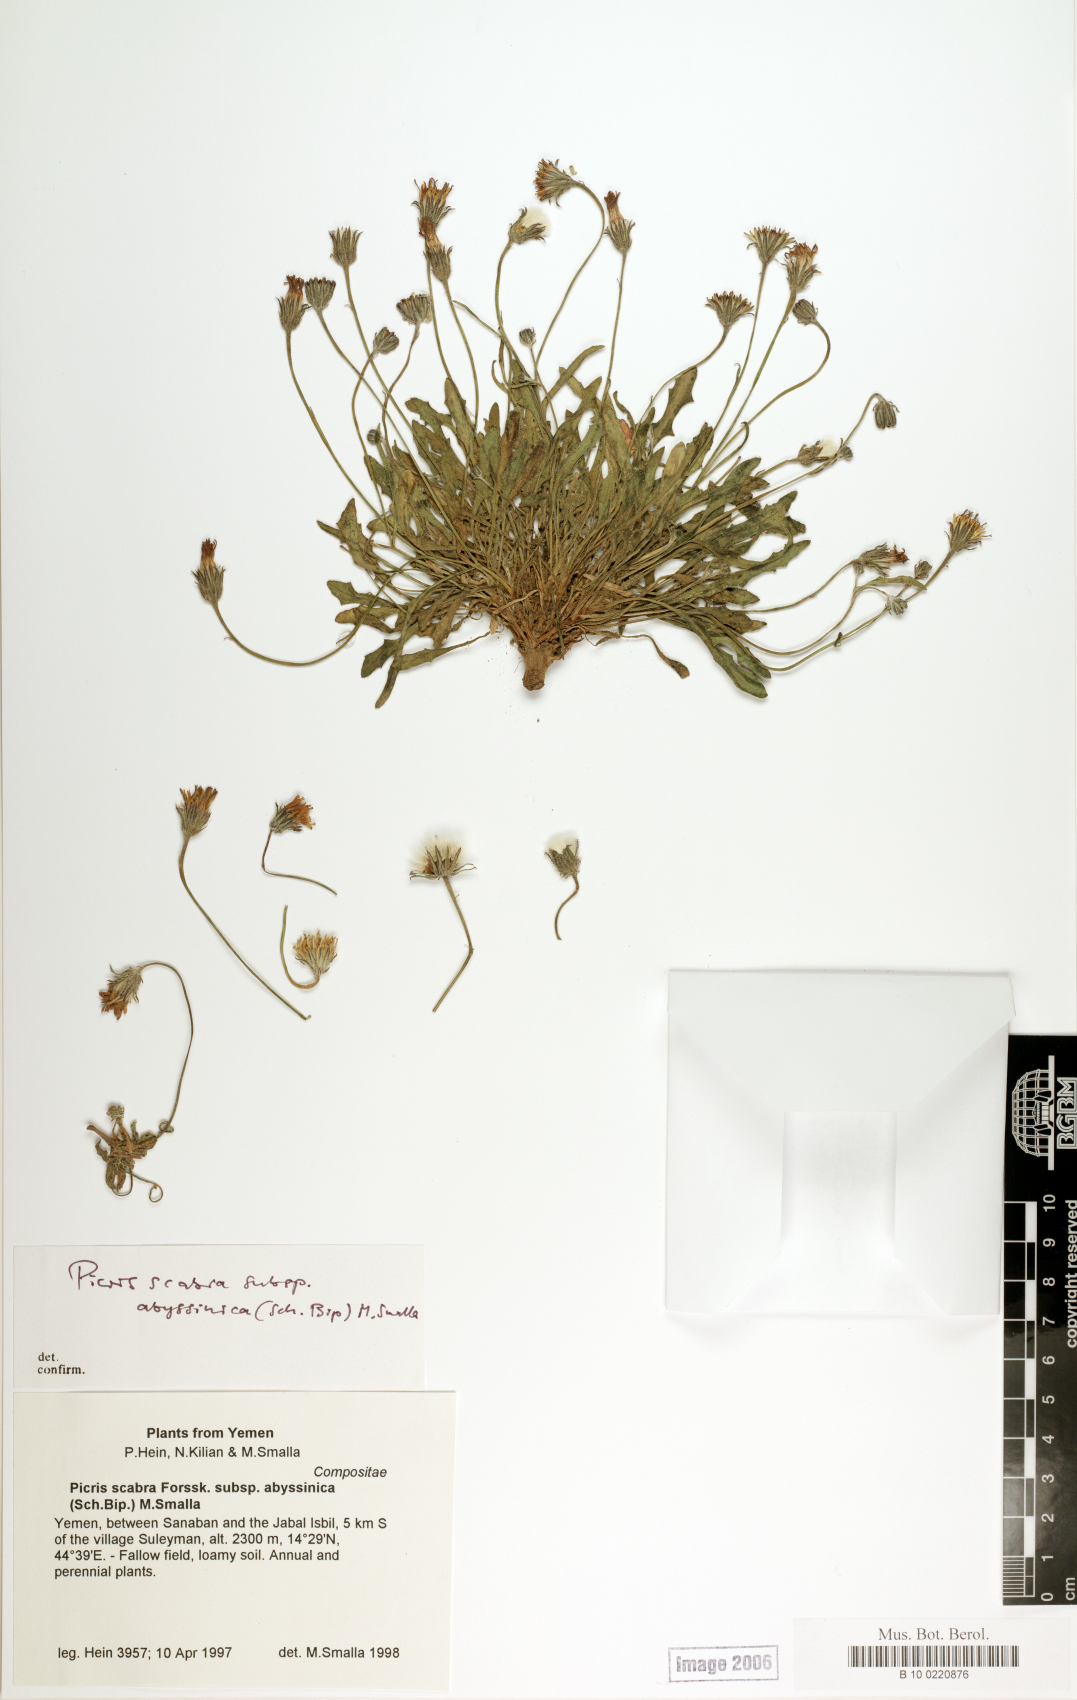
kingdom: Plantae
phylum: Tracheophyta
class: Magnoliopsida
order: Asterales
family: Asteraceae
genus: Picris
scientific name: Picris scabra
